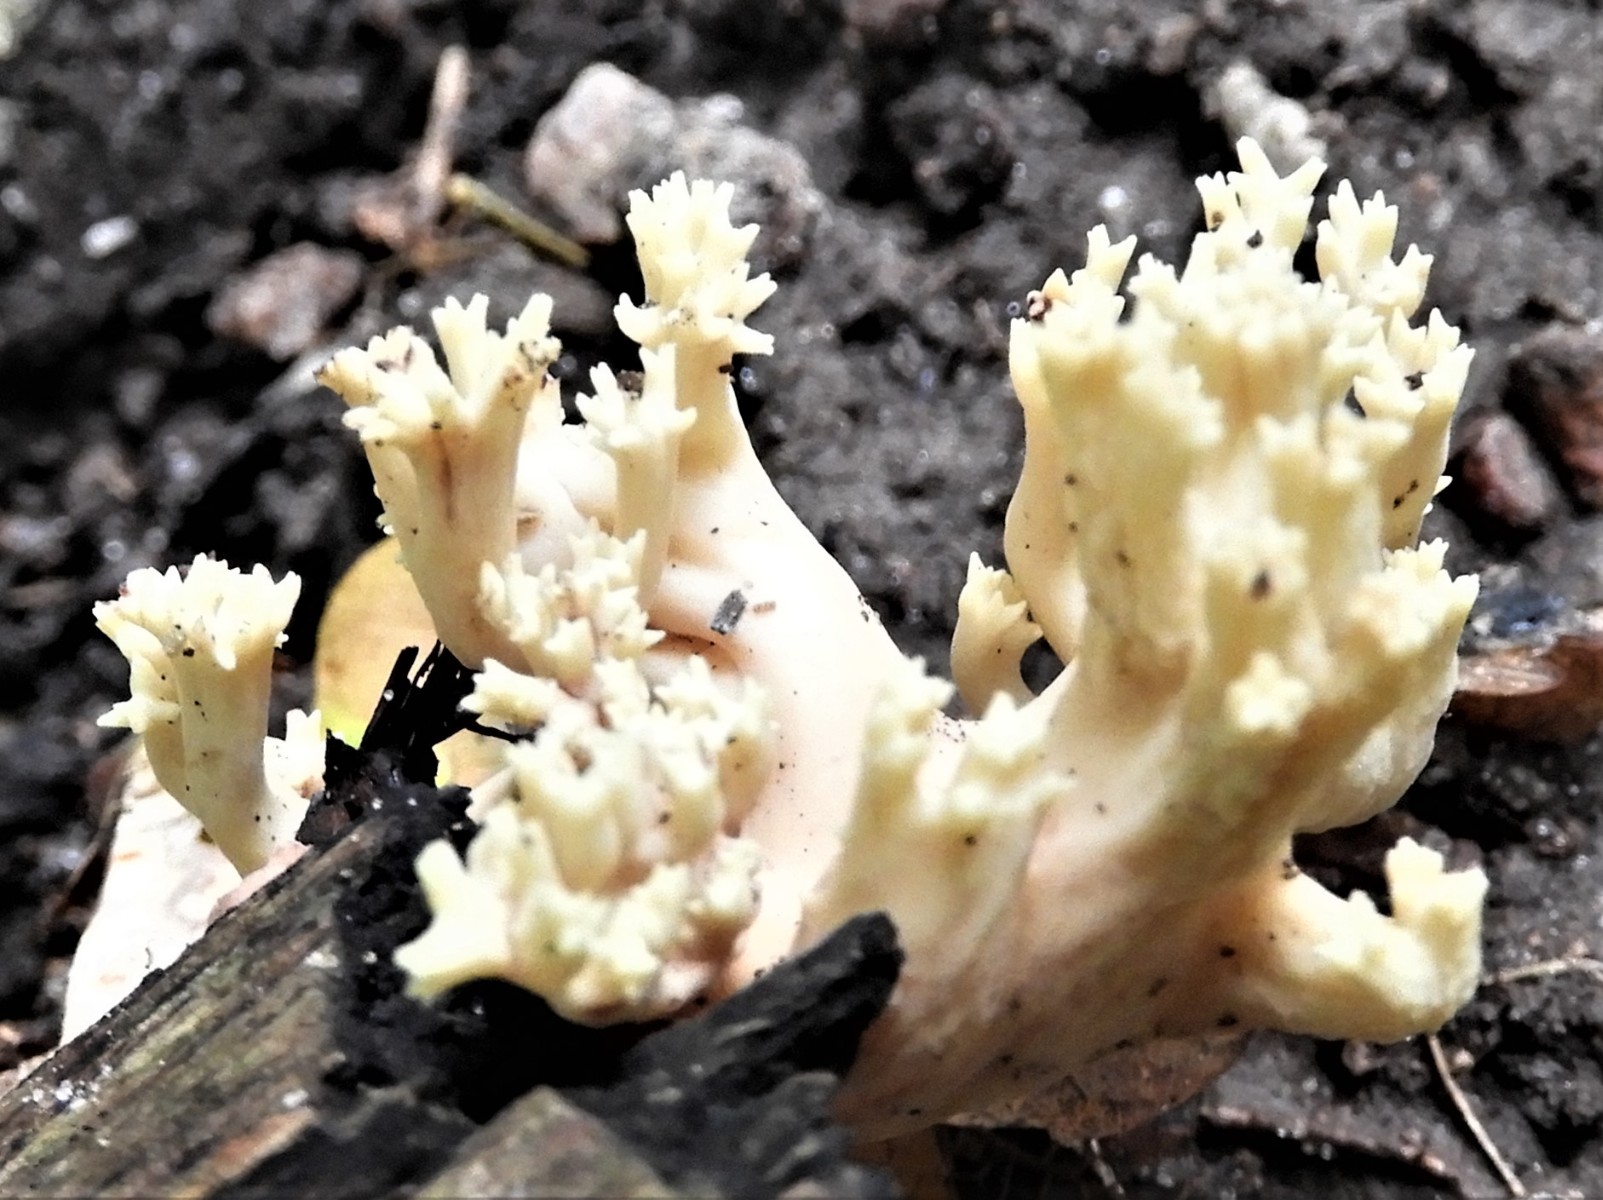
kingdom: Fungi
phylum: Basidiomycota
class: Agaricomycetes
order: Gomphales
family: Gomphaceae
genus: Ramaria
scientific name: Ramaria stricta
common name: rank koralsvamp
